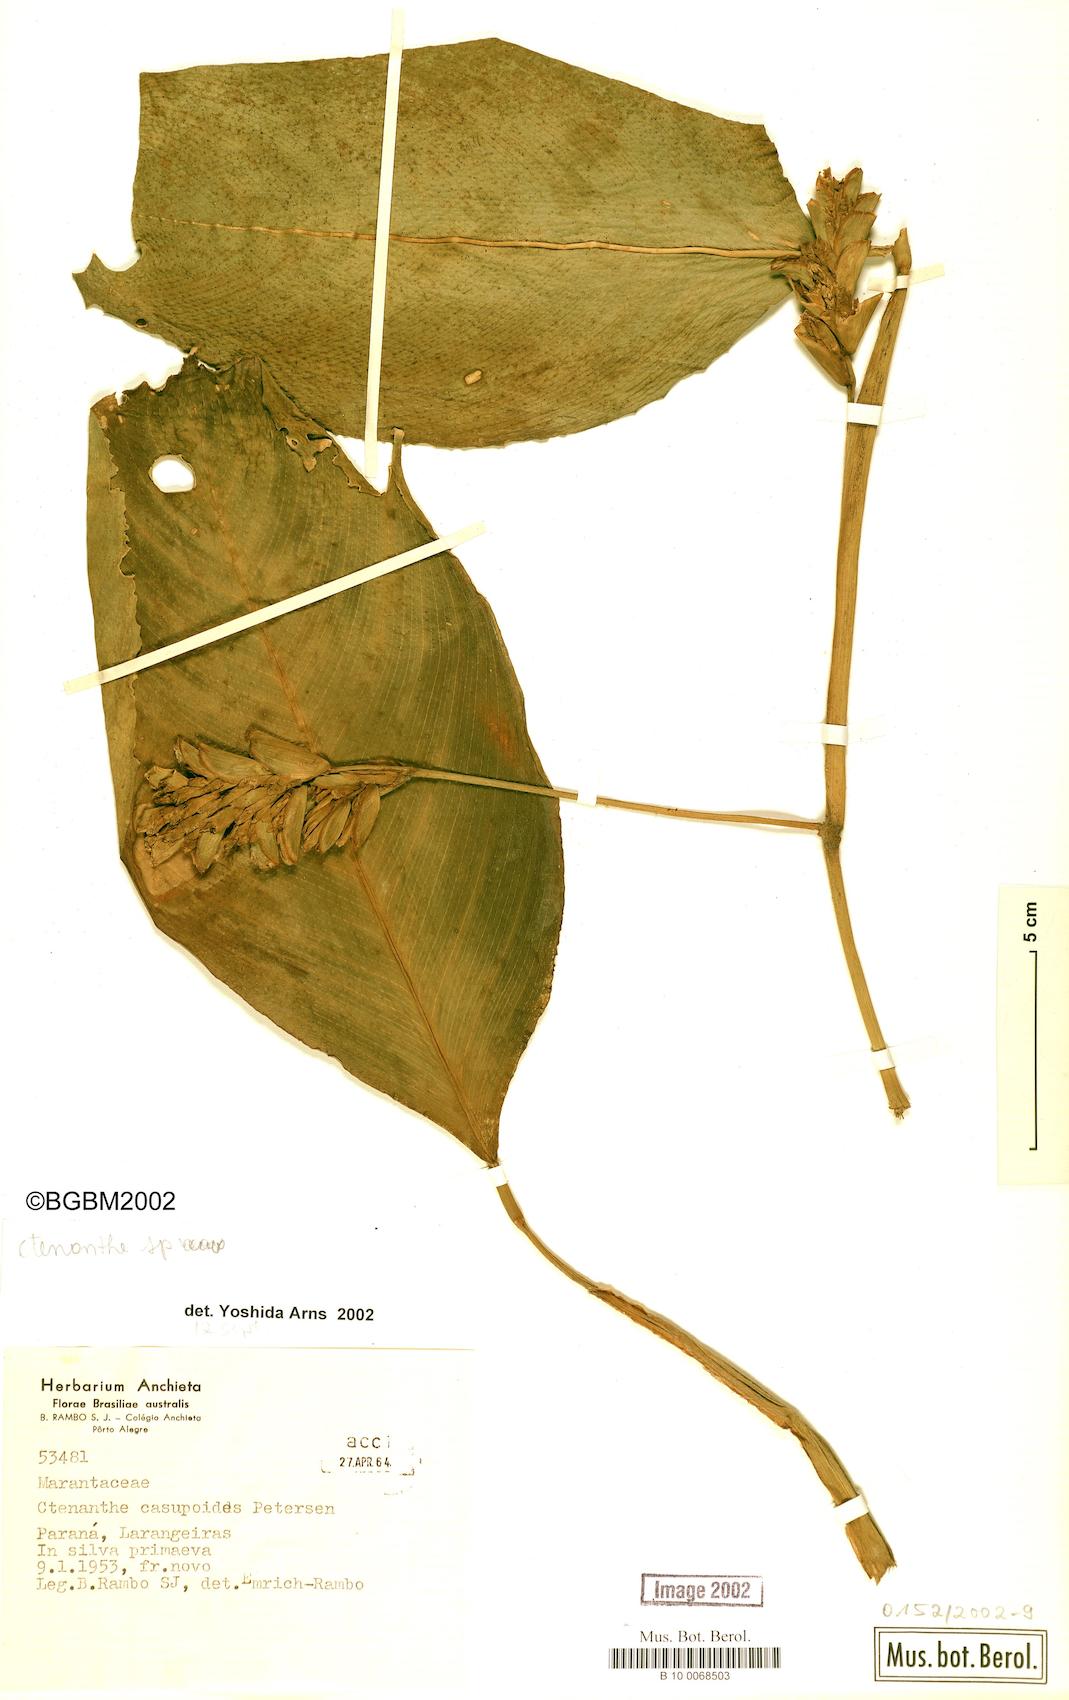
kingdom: Plantae
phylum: Tracheophyta
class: Liliopsida
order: Zingiberales
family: Marantaceae
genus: Ctenanthe
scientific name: Ctenanthe
